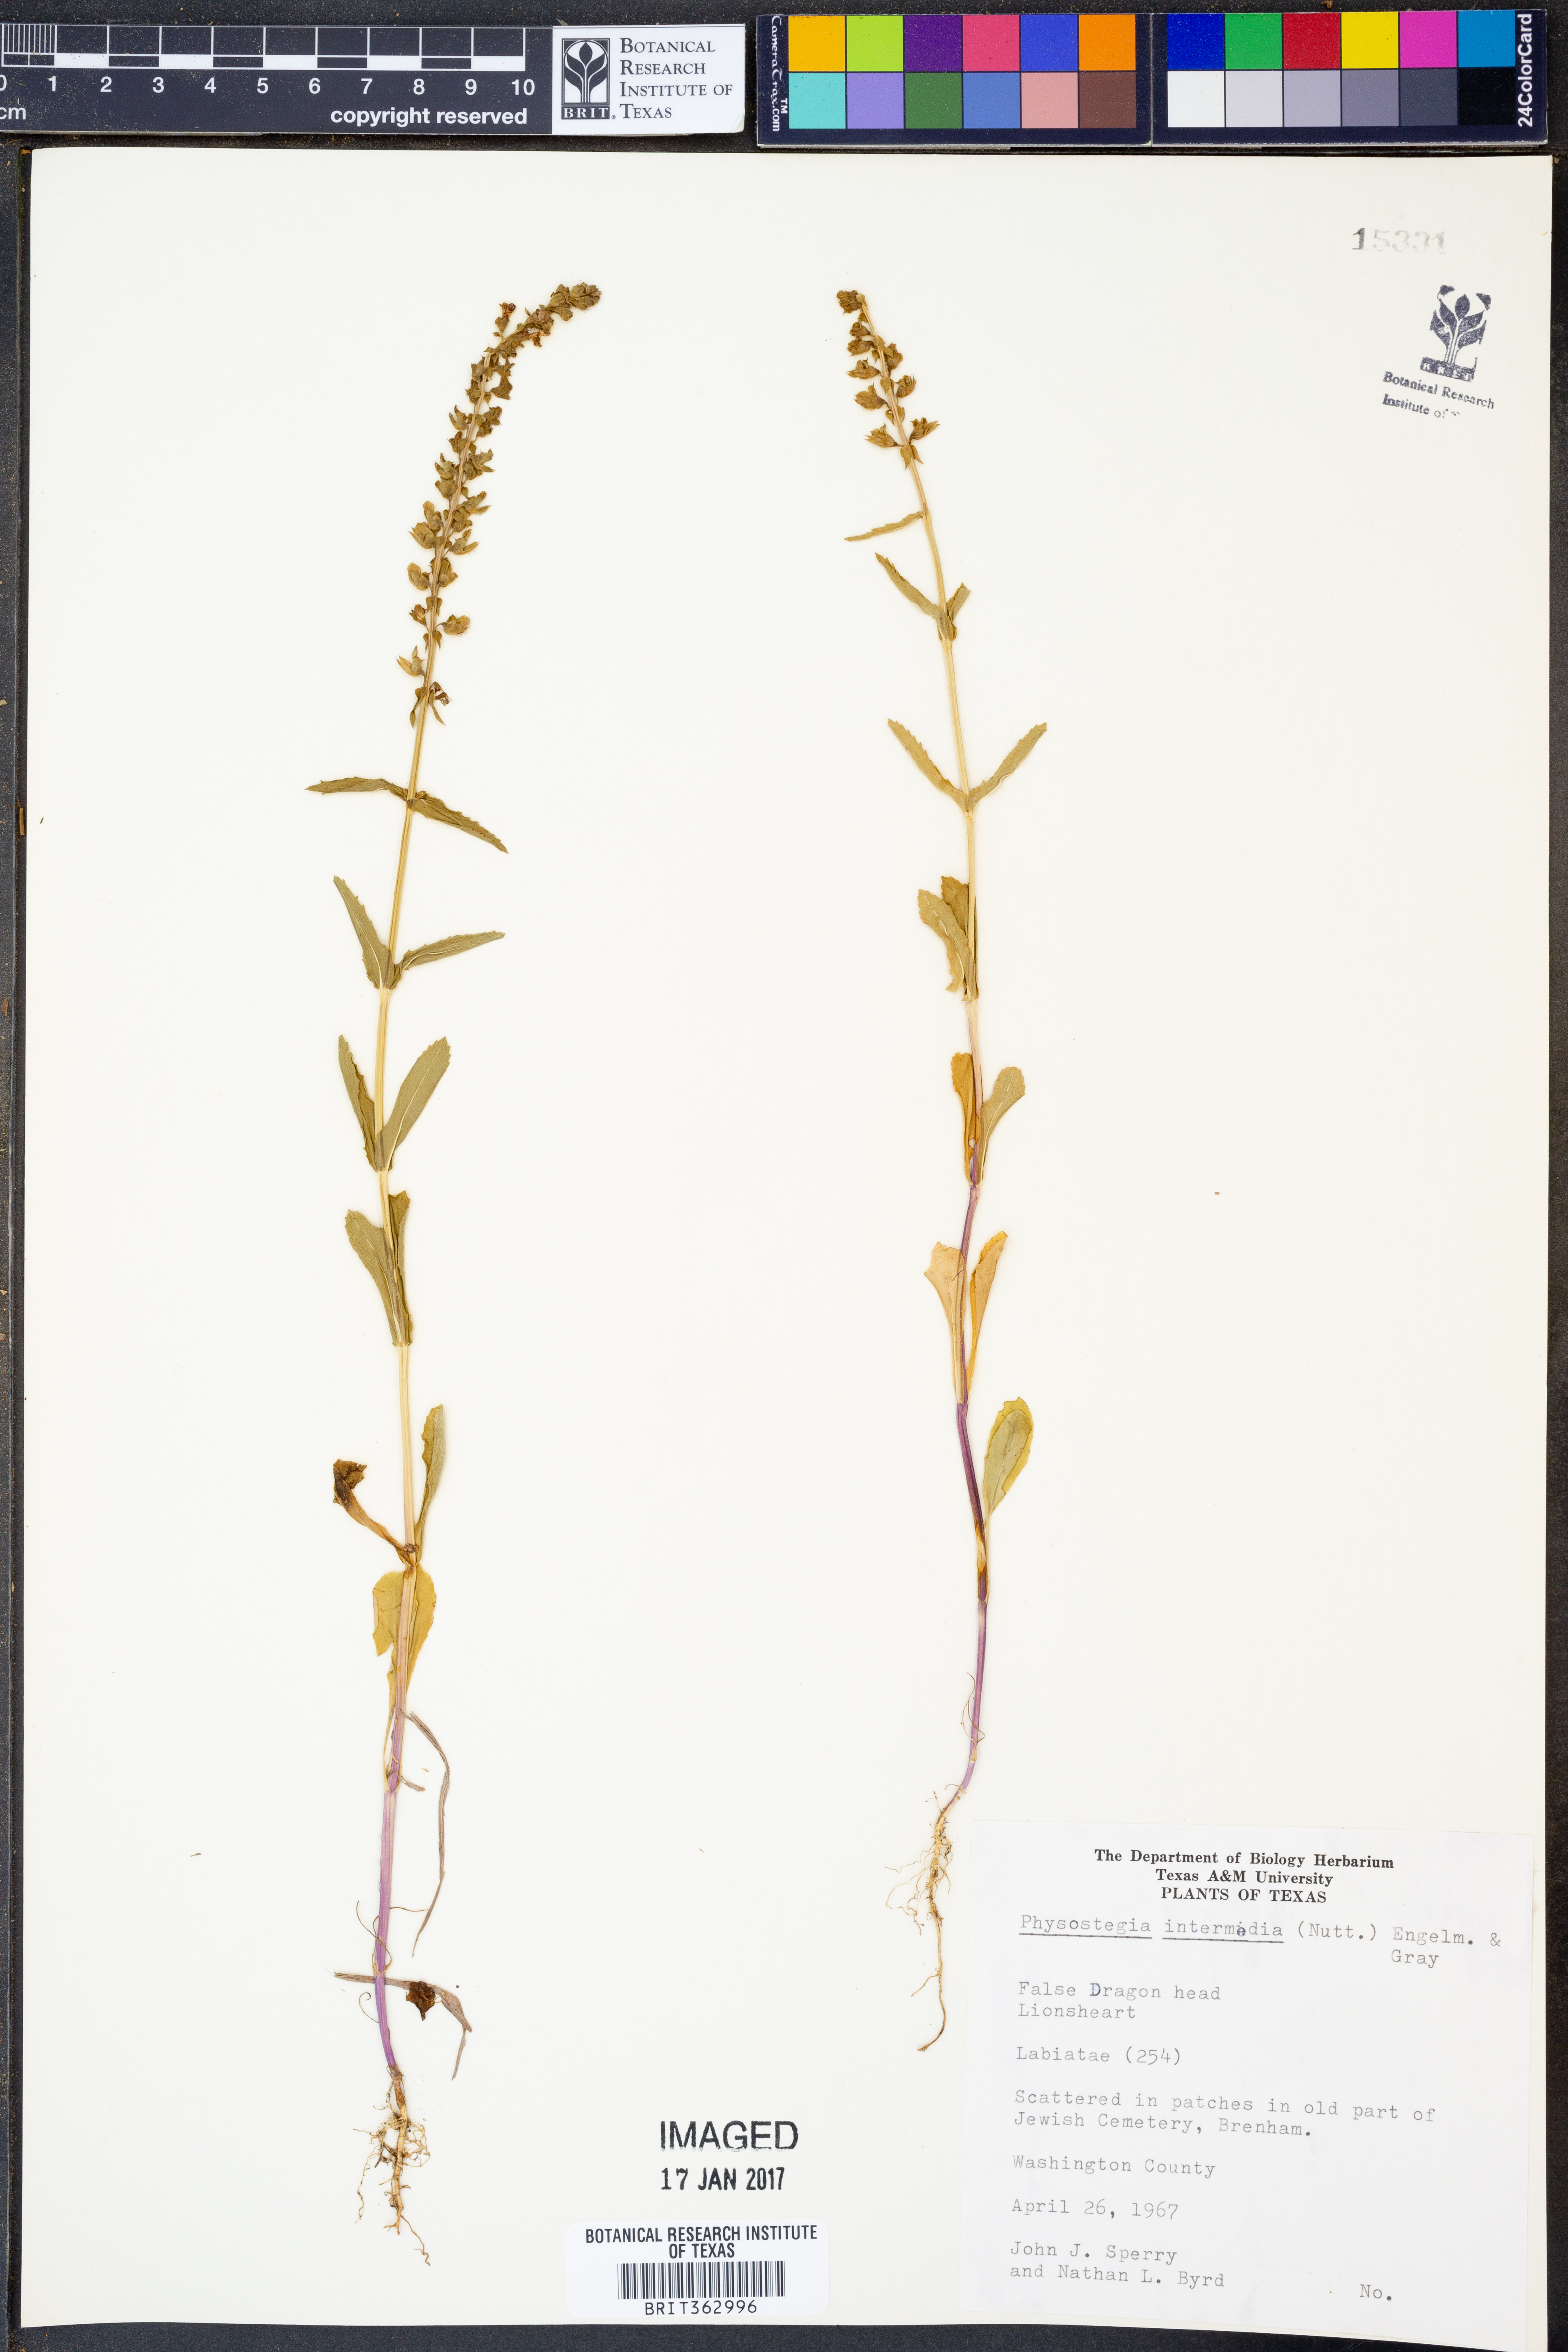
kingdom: Plantae
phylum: Tracheophyta
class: Magnoliopsida
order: Lamiales
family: Lamiaceae
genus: Physostegia
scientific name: Physostegia intermedia
